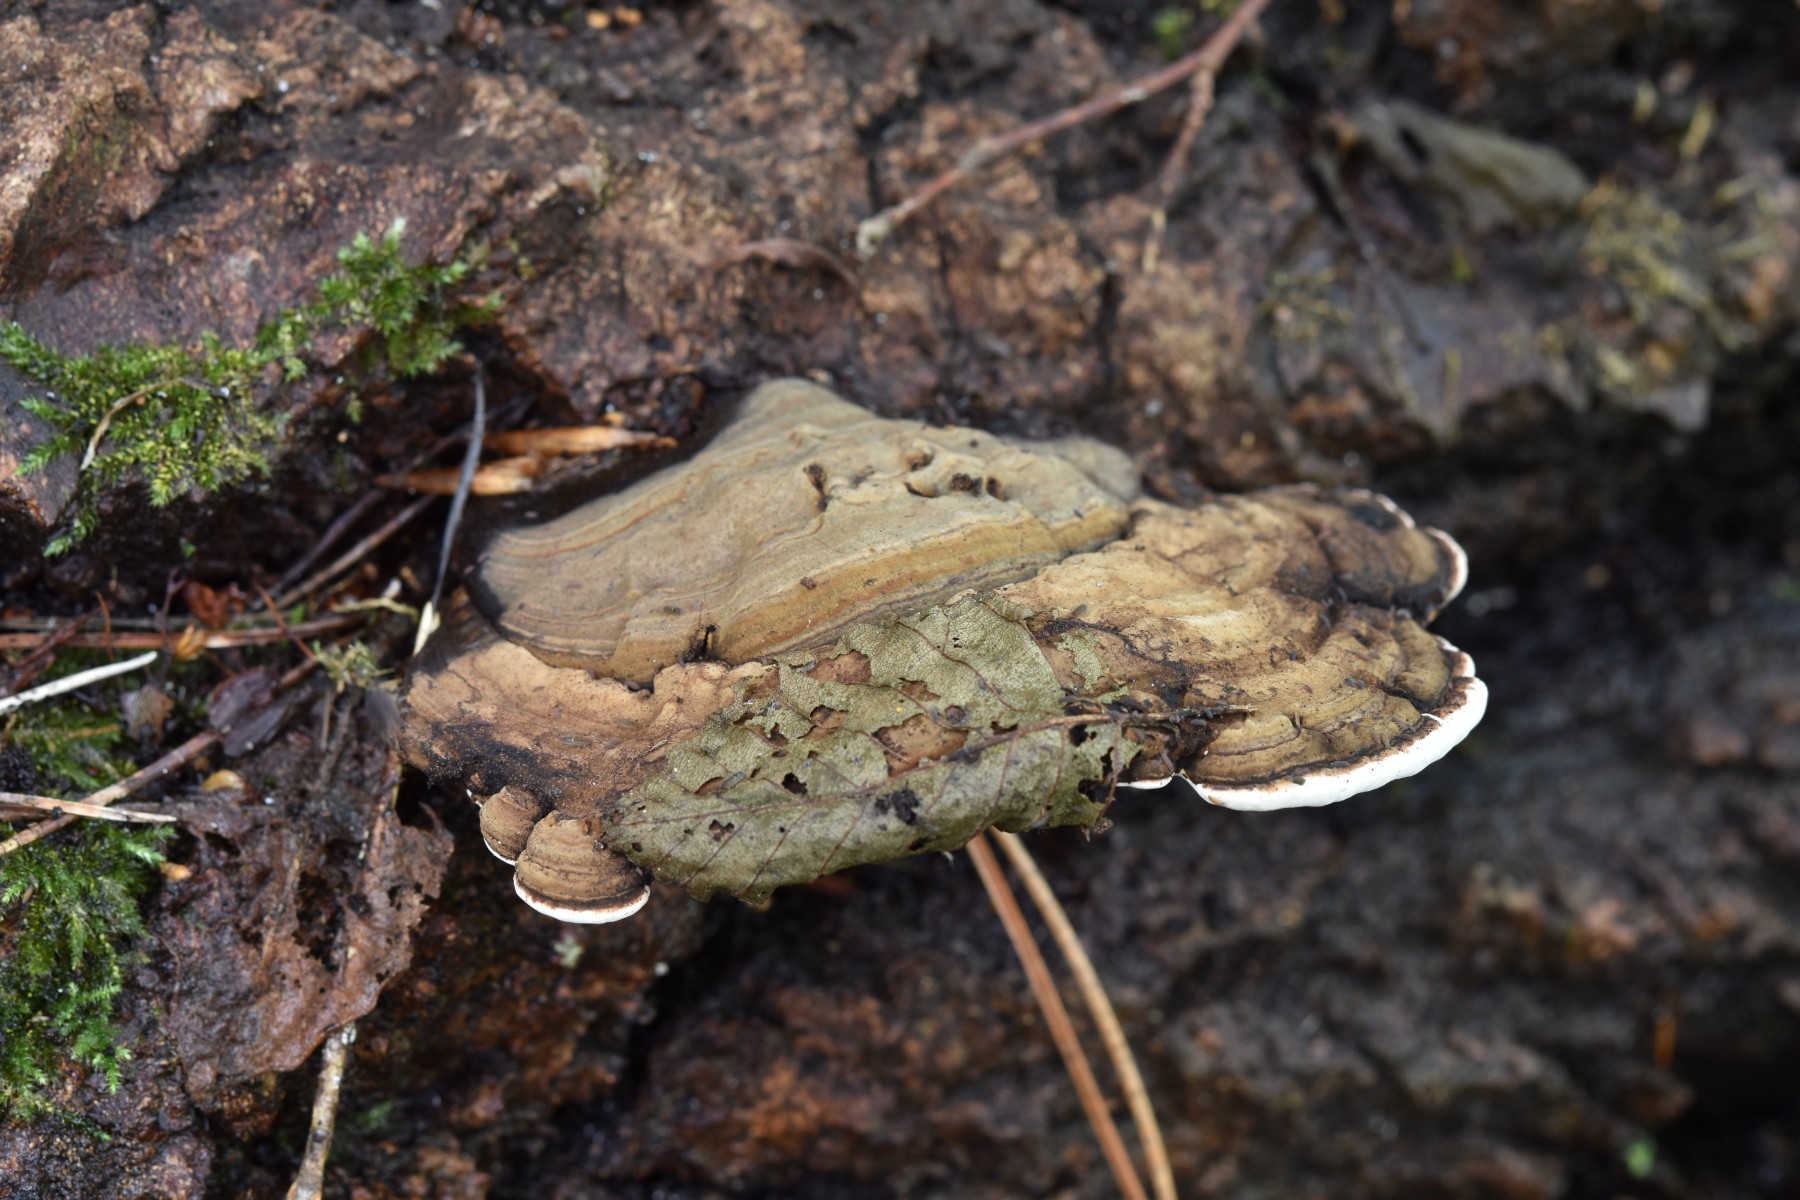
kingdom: Fungi
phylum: Basidiomycota
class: Agaricomycetes
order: Polyporales
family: Polyporaceae
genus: Ganoderma
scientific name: Ganoderma applanatum
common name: flad lakporesvamp
